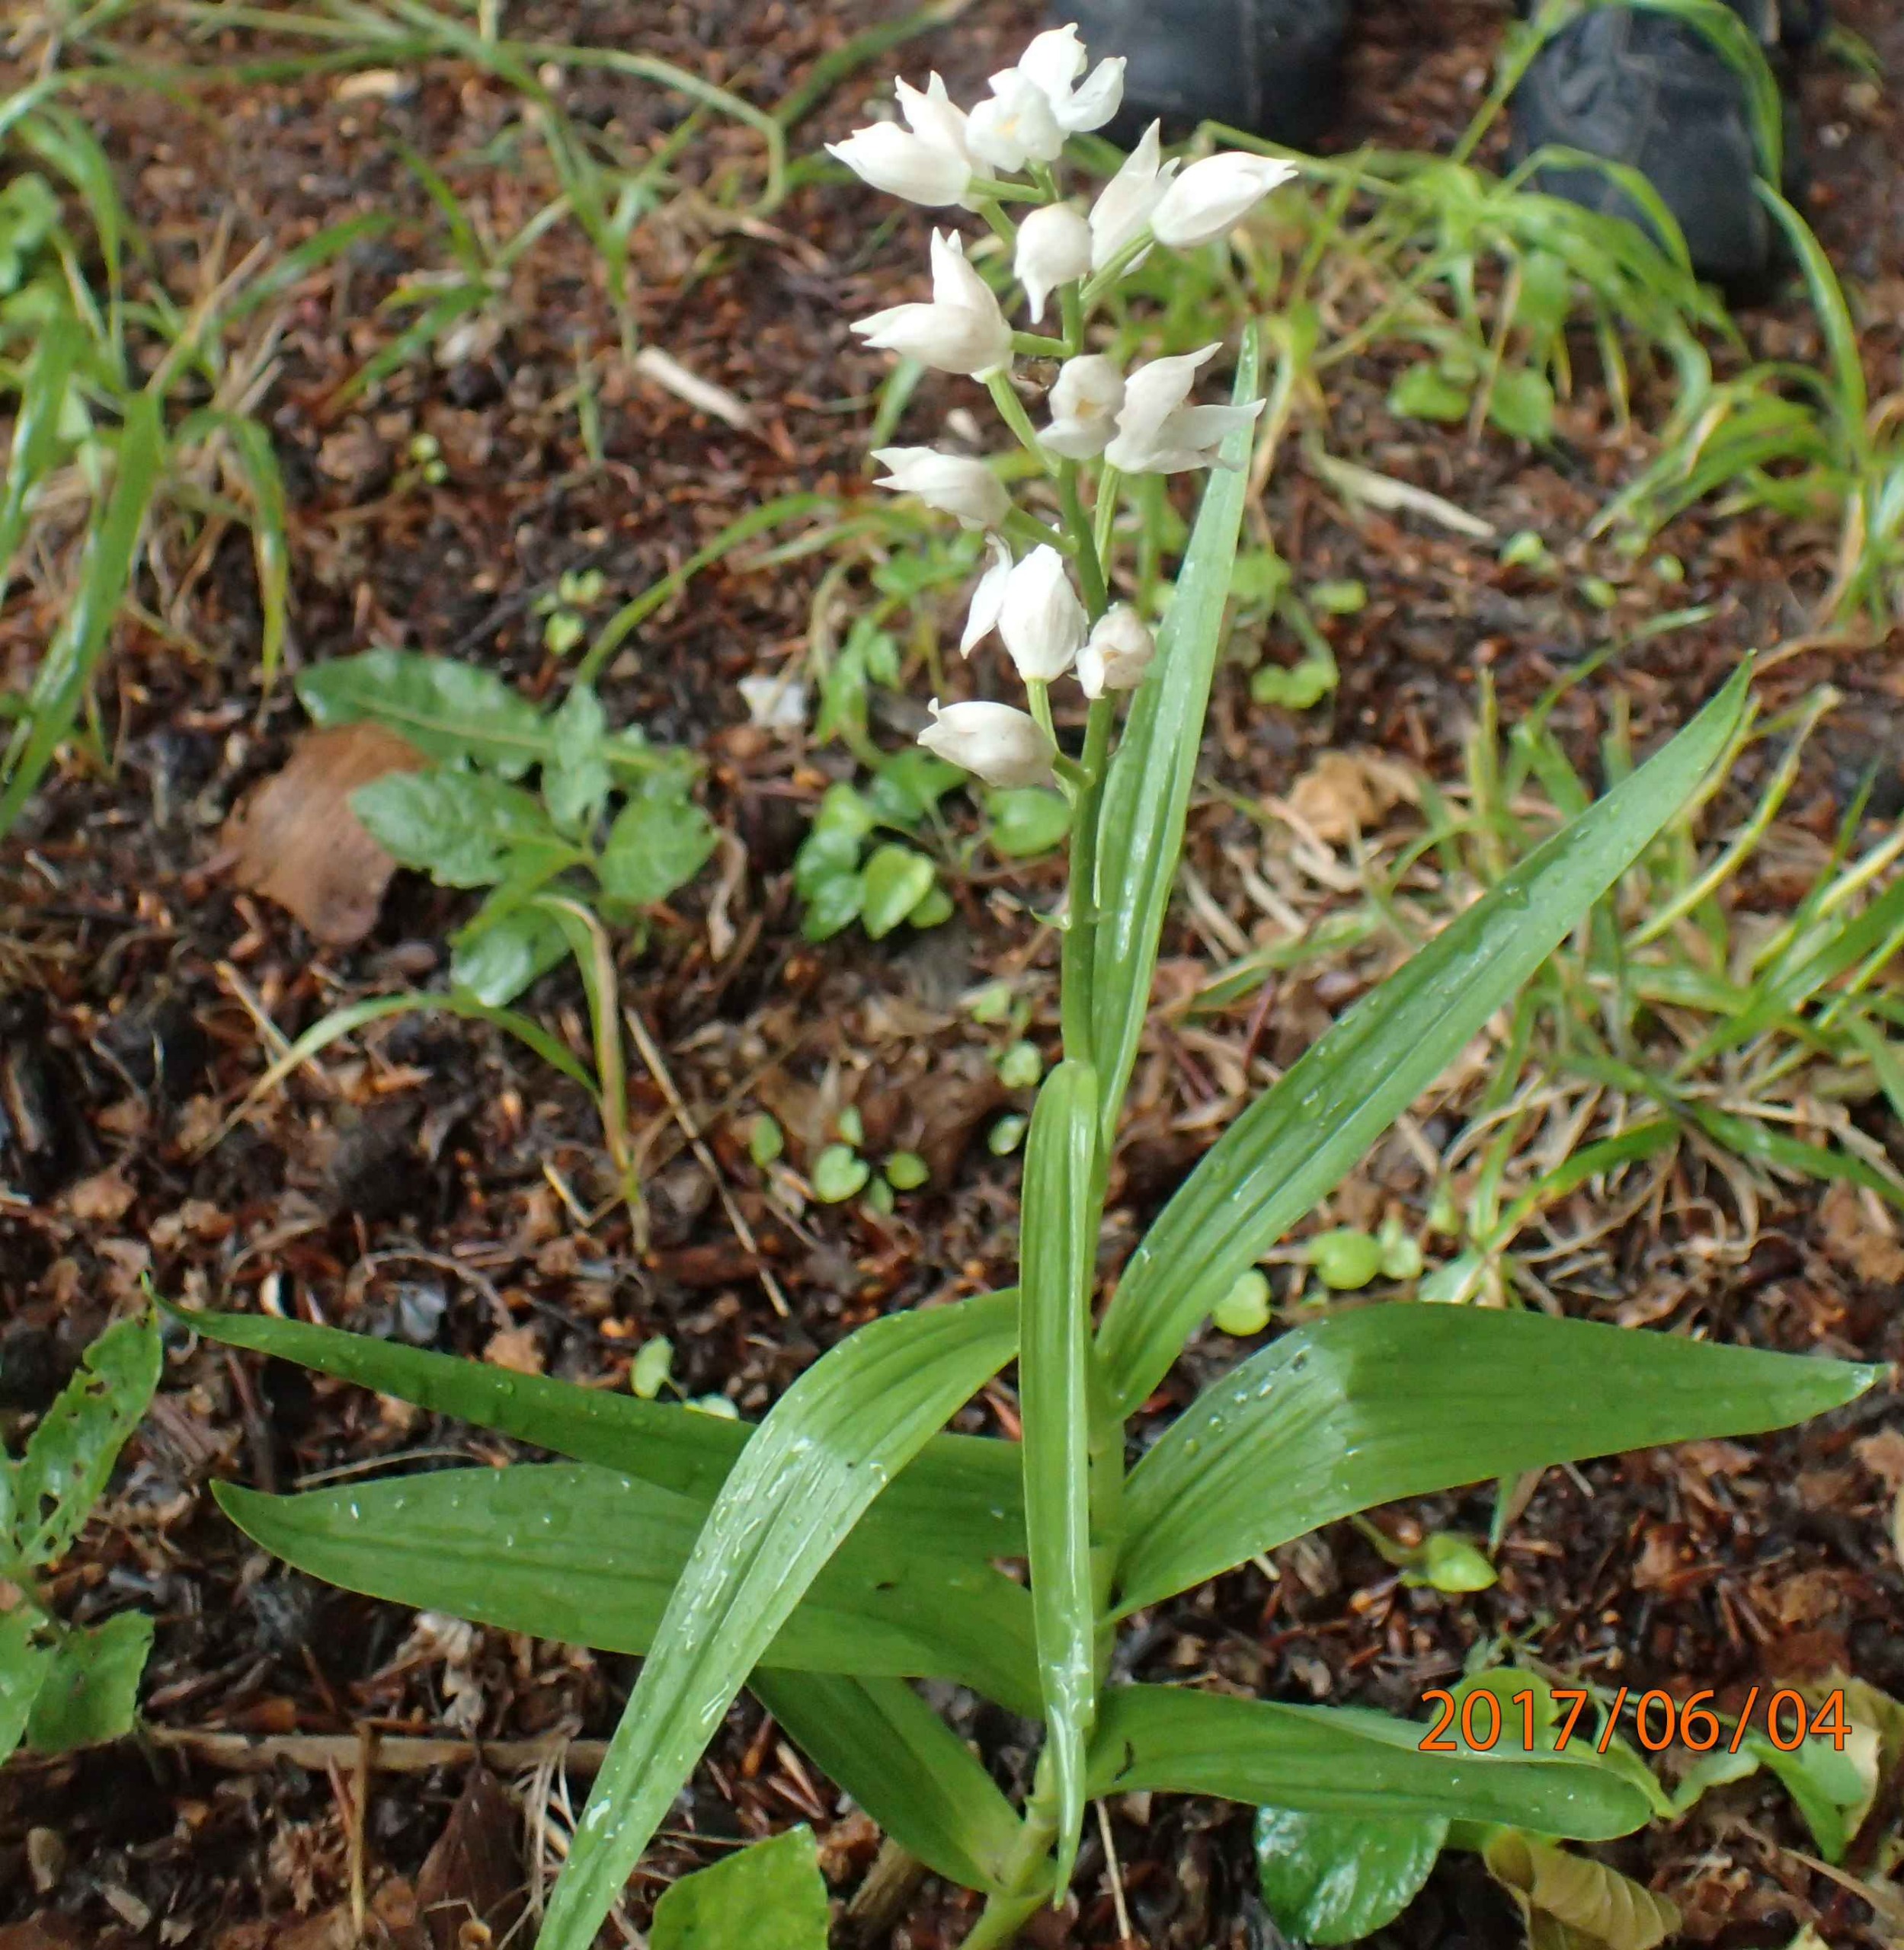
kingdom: Plantae
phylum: Tracheophyta
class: Liliopsida
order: Asparagales
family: Orchidaceae
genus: Cephalanthera
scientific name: Cephalanthera longifolia
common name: Sværd-skovlilje
